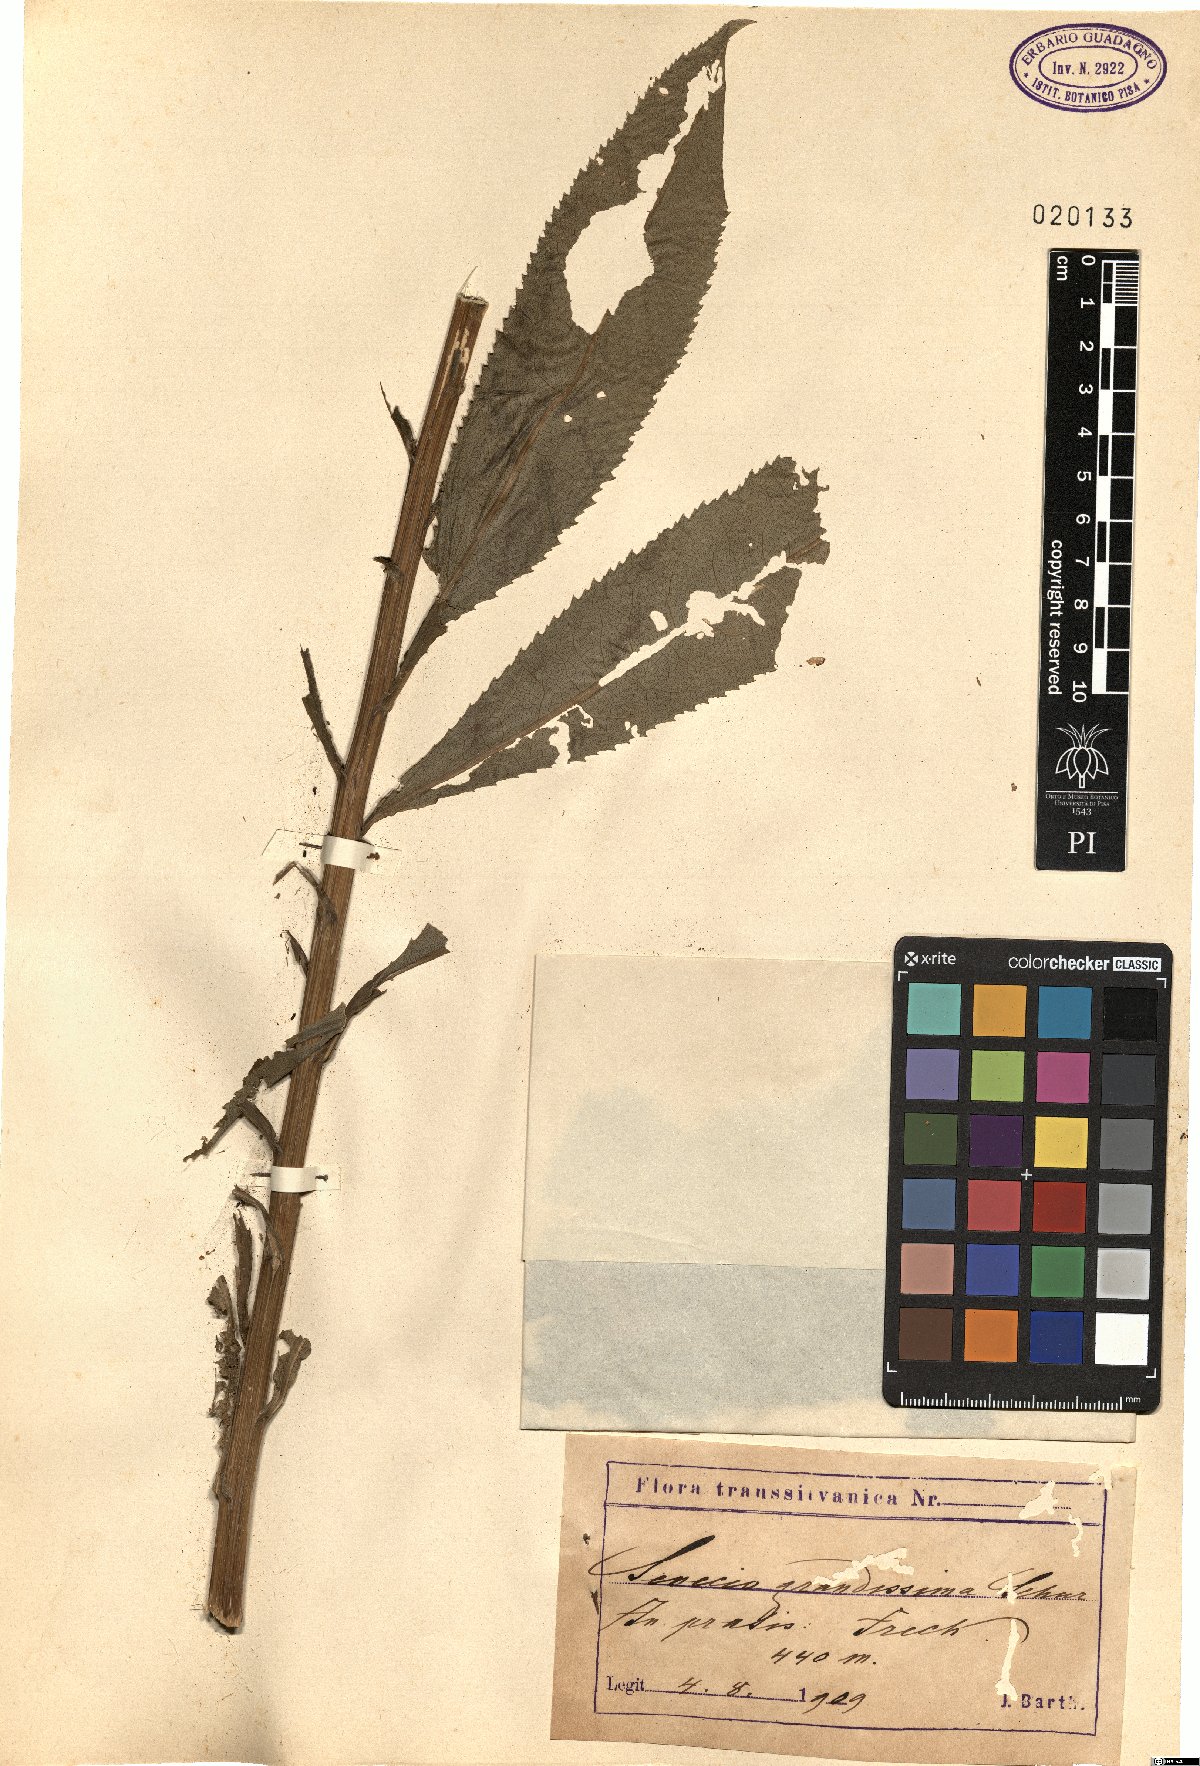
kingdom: Plantae
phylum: Tracheophyta
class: Magnoliopsida
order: Asterales
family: Asteraceae
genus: Senecio
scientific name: Senecio sarracenicus
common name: Broad-leaved ragwort
